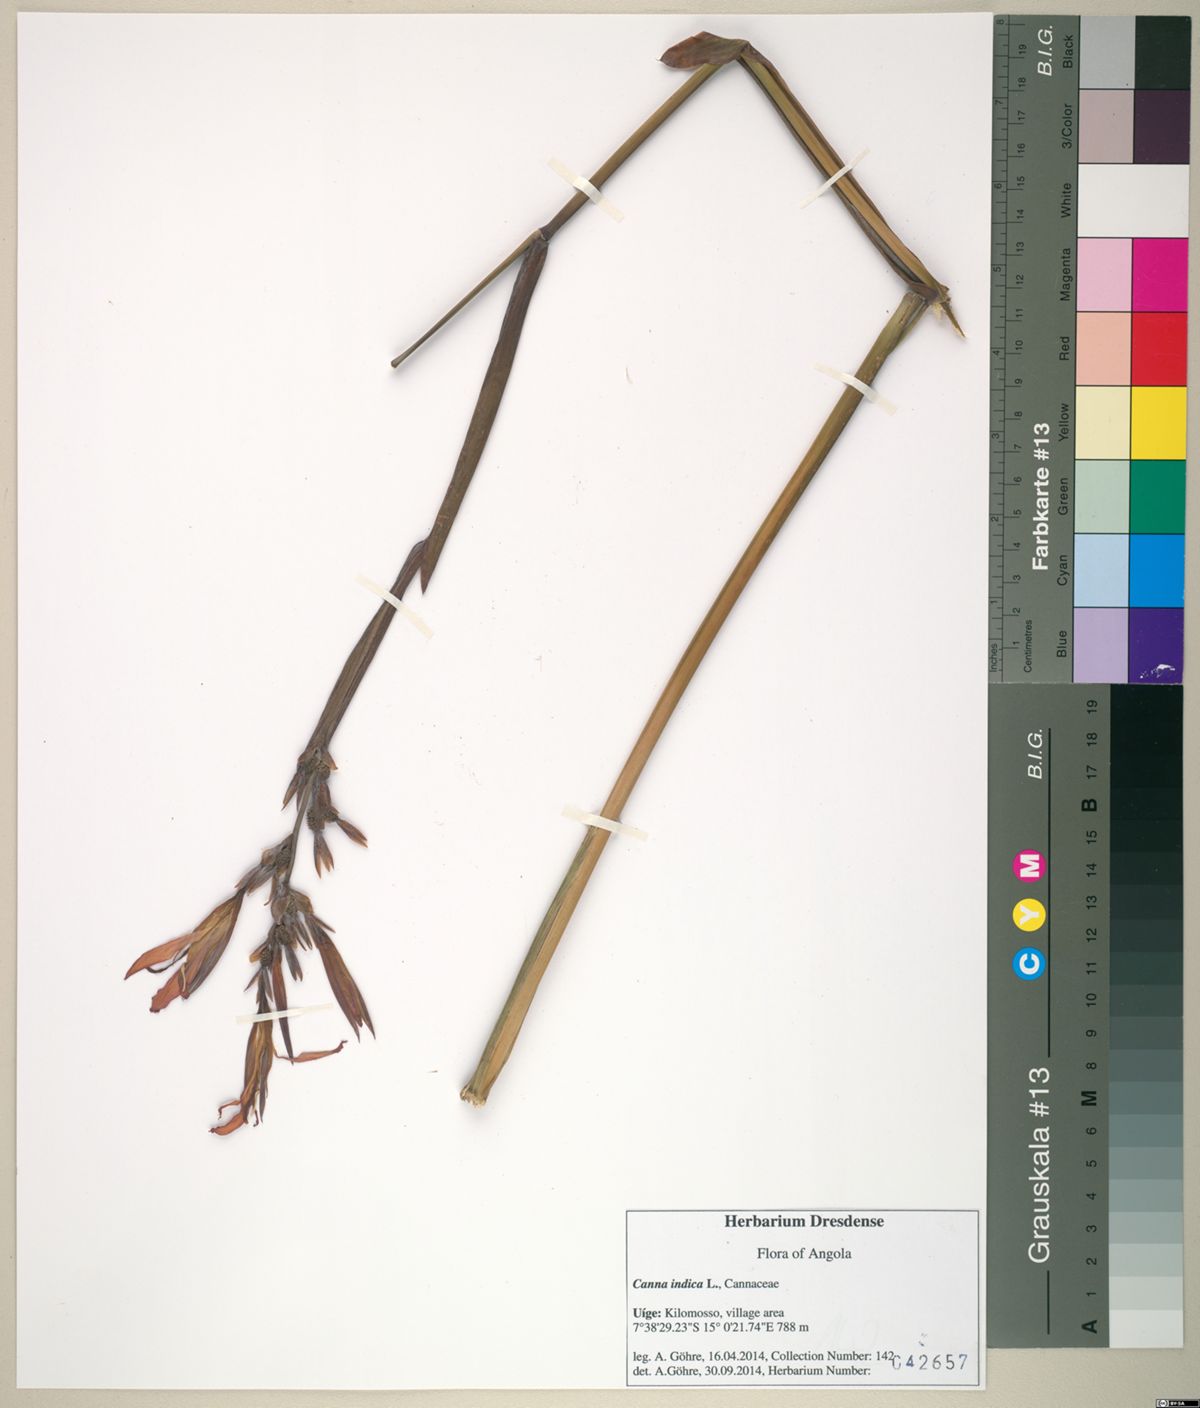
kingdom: Plantae
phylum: Tracheophyta
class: Liliopsida
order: Zingiberales
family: Cannaceae
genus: Canna
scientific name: Canna indica
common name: Indian shot
